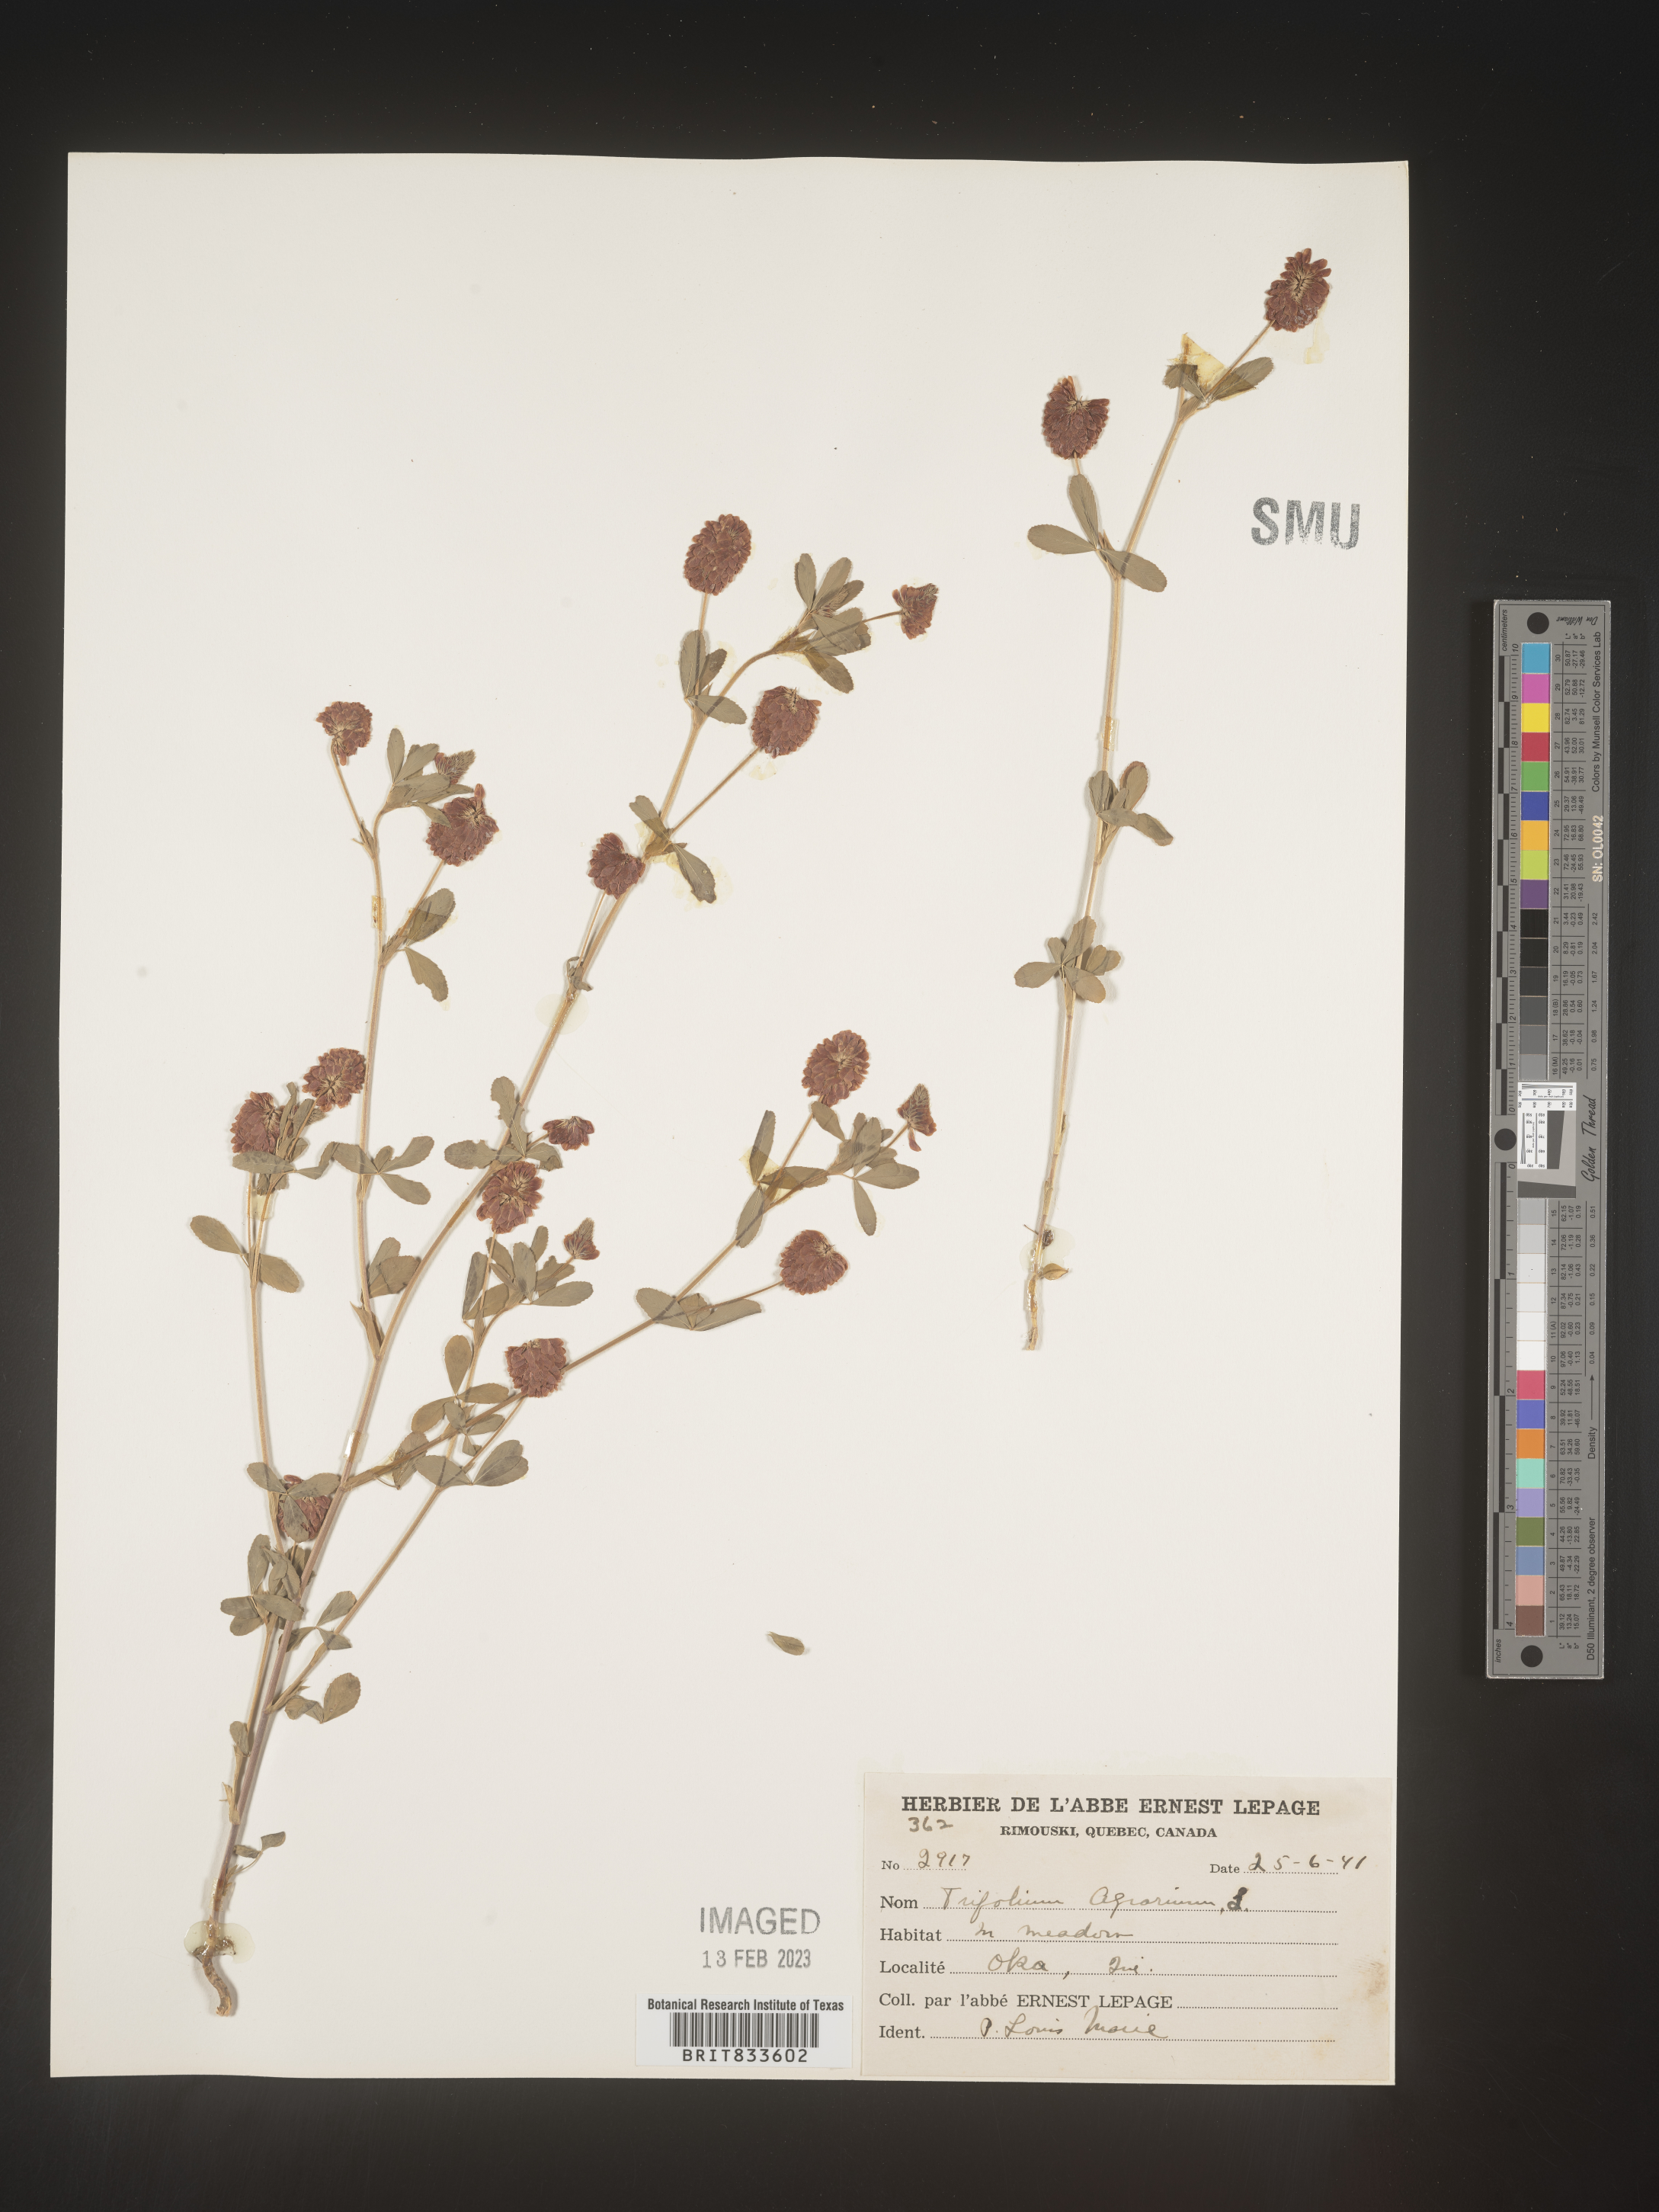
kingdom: Plantae
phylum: Tracheophyta
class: Magnoliopsida
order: Fabales
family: Fabaceae
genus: Trifolium
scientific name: Trifolium agrarium
